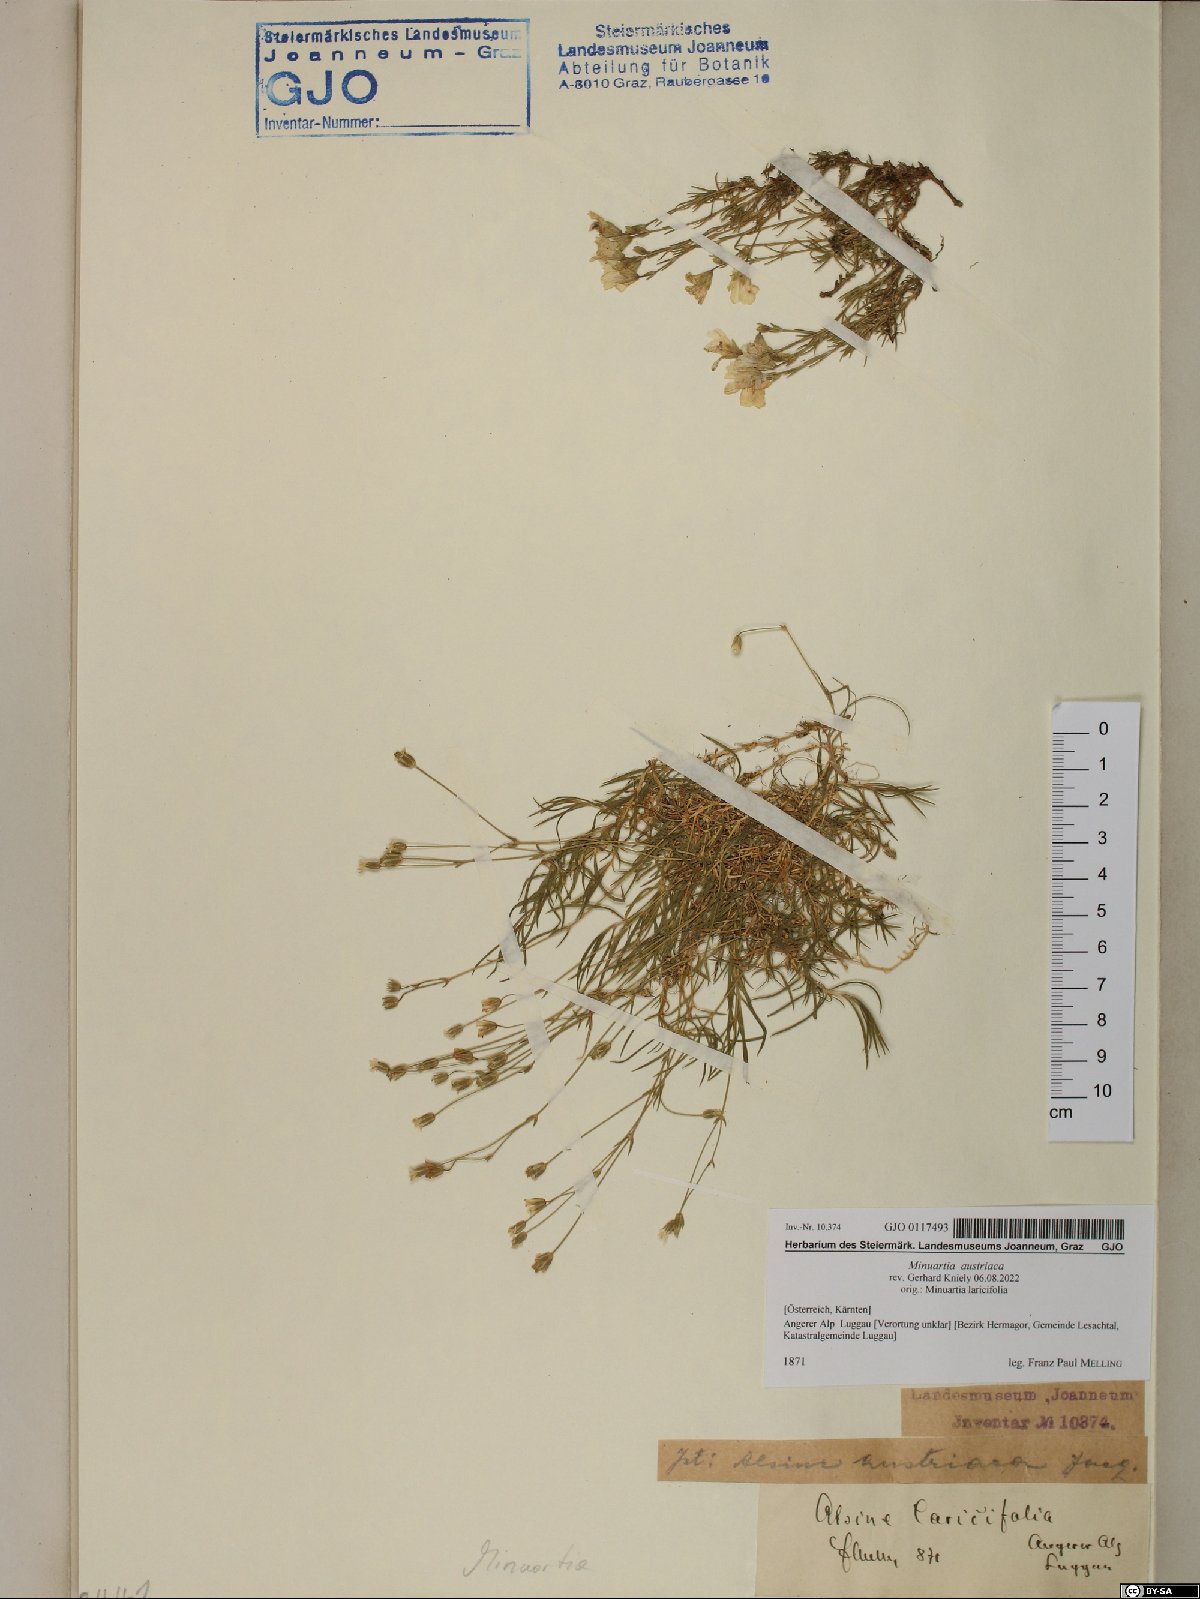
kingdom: Plantae
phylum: Tracheophyta
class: Magnoliopsida
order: Caryophyllales
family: Caryophyllaceae
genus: Sabulina
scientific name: Sabulina austriaca
